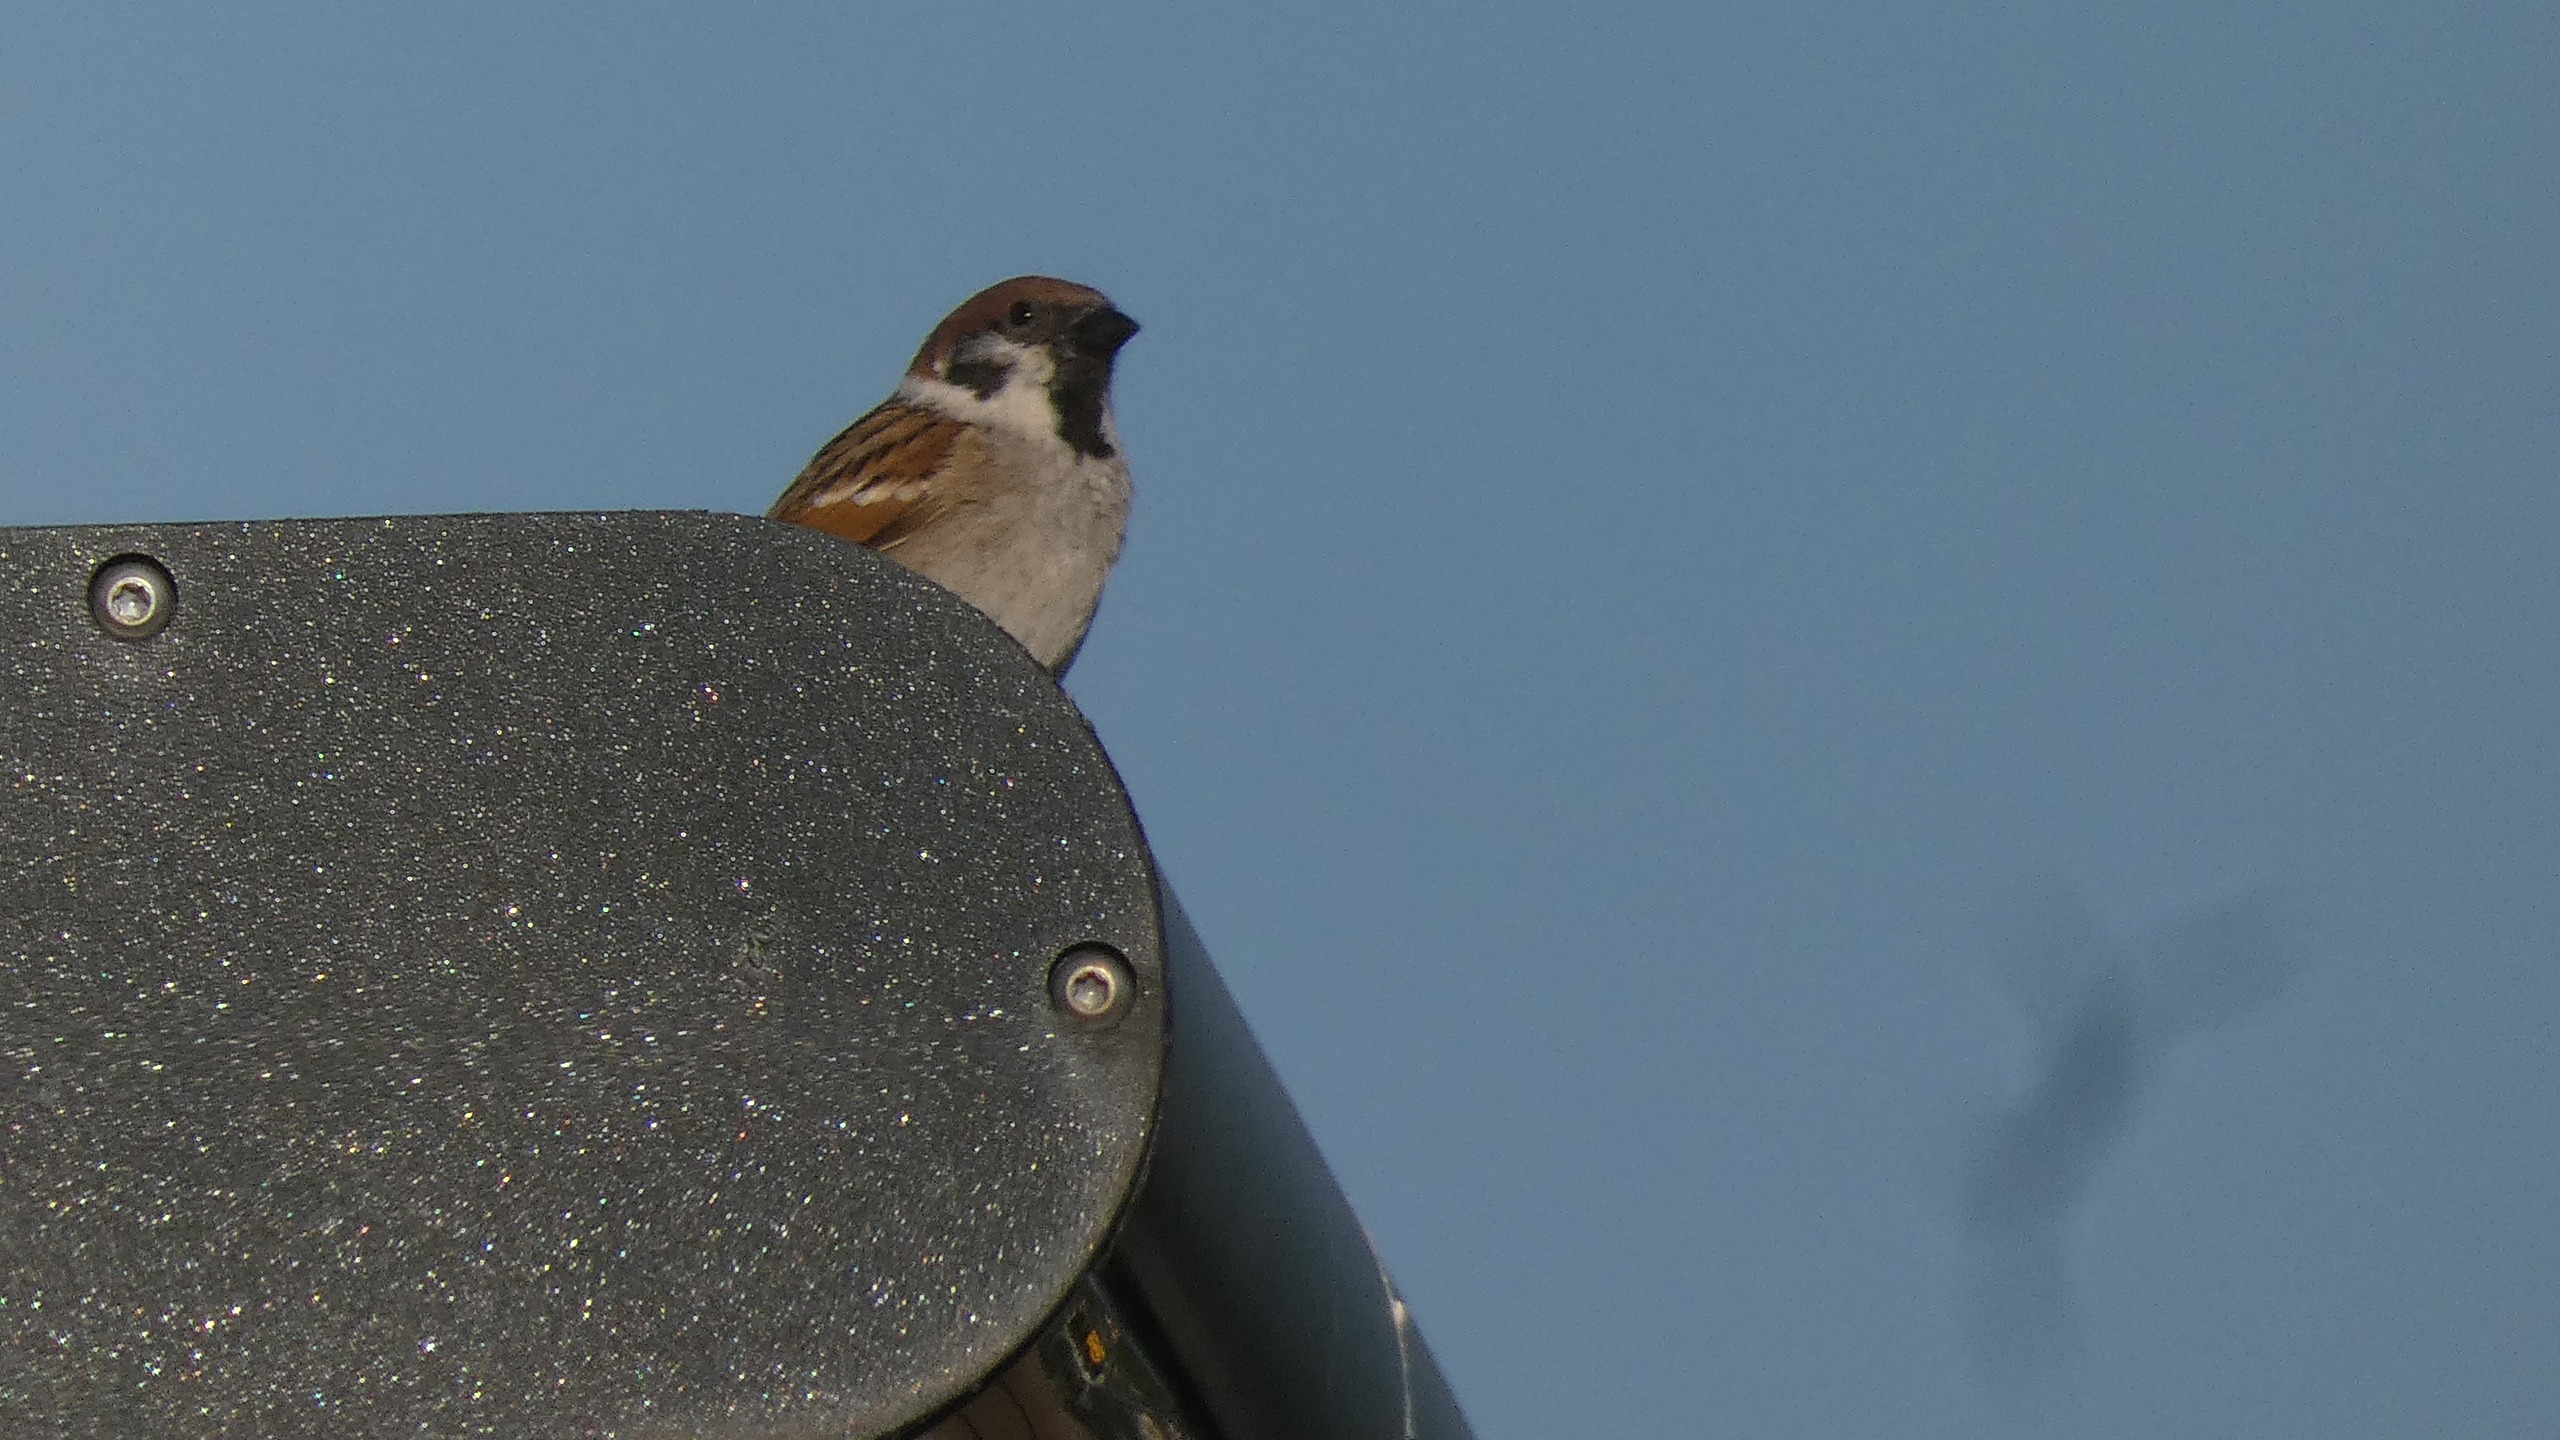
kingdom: Animalia
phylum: Chordata
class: Aves
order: Passeriformes
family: Passeridae
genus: Passer
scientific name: Passer montanus
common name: Skovspurv
